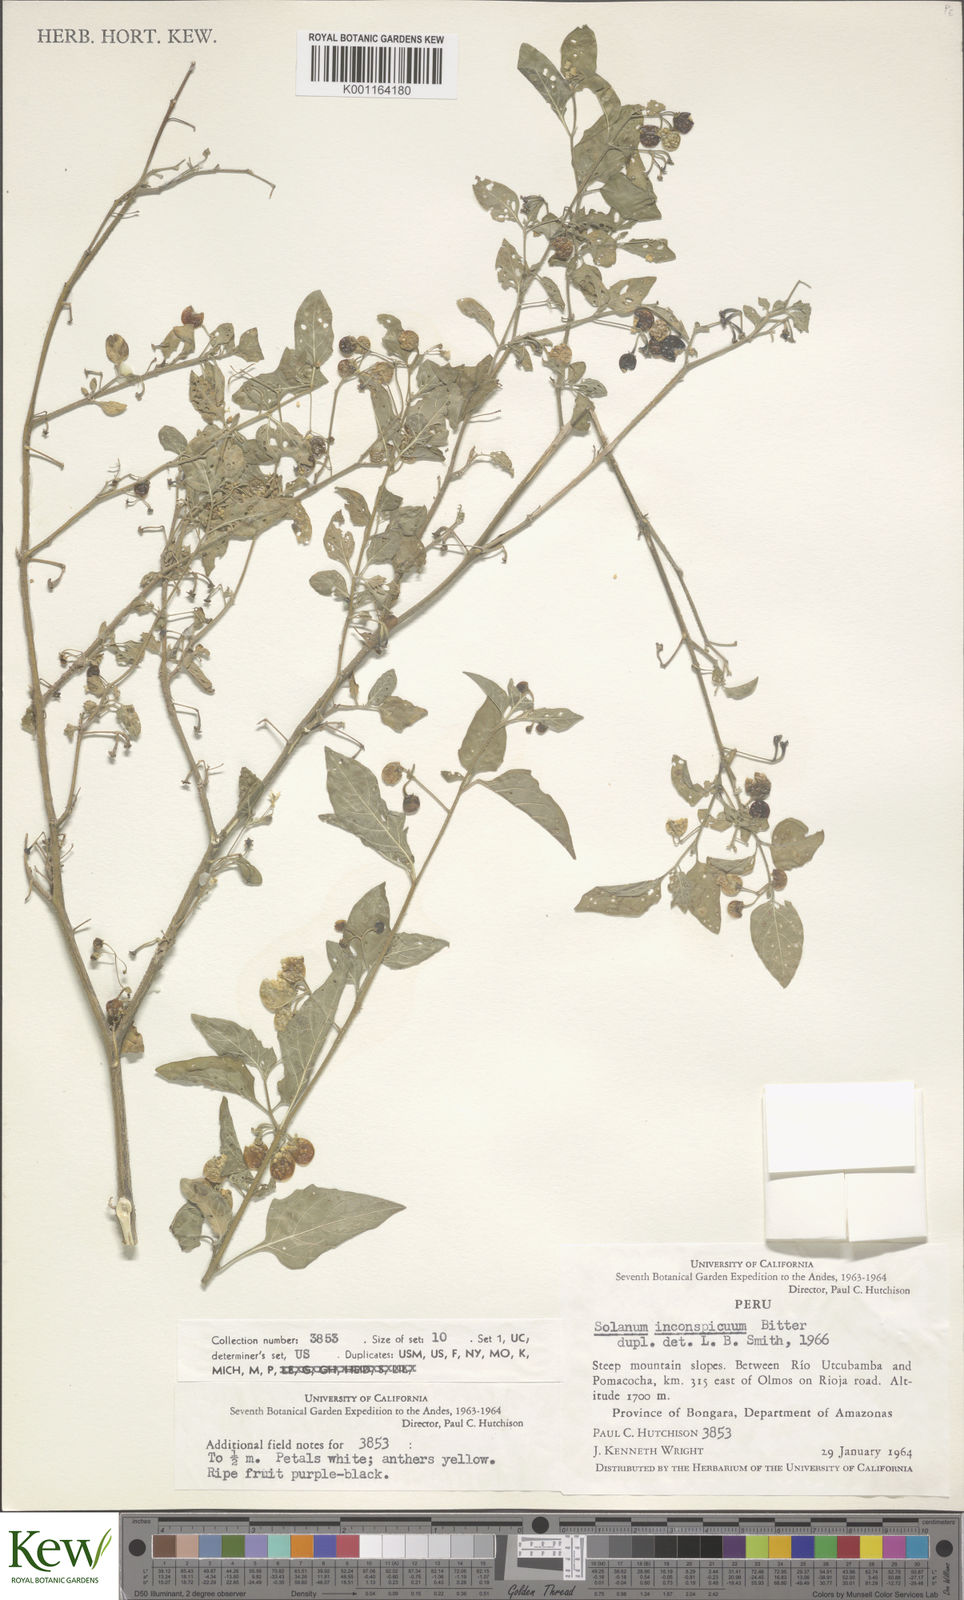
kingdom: Plantae
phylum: Tracheophyta
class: Magnoliopsida
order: Solanales
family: Solanaceae
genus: Solanum
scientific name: Solanum americanum
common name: American black nightshade
